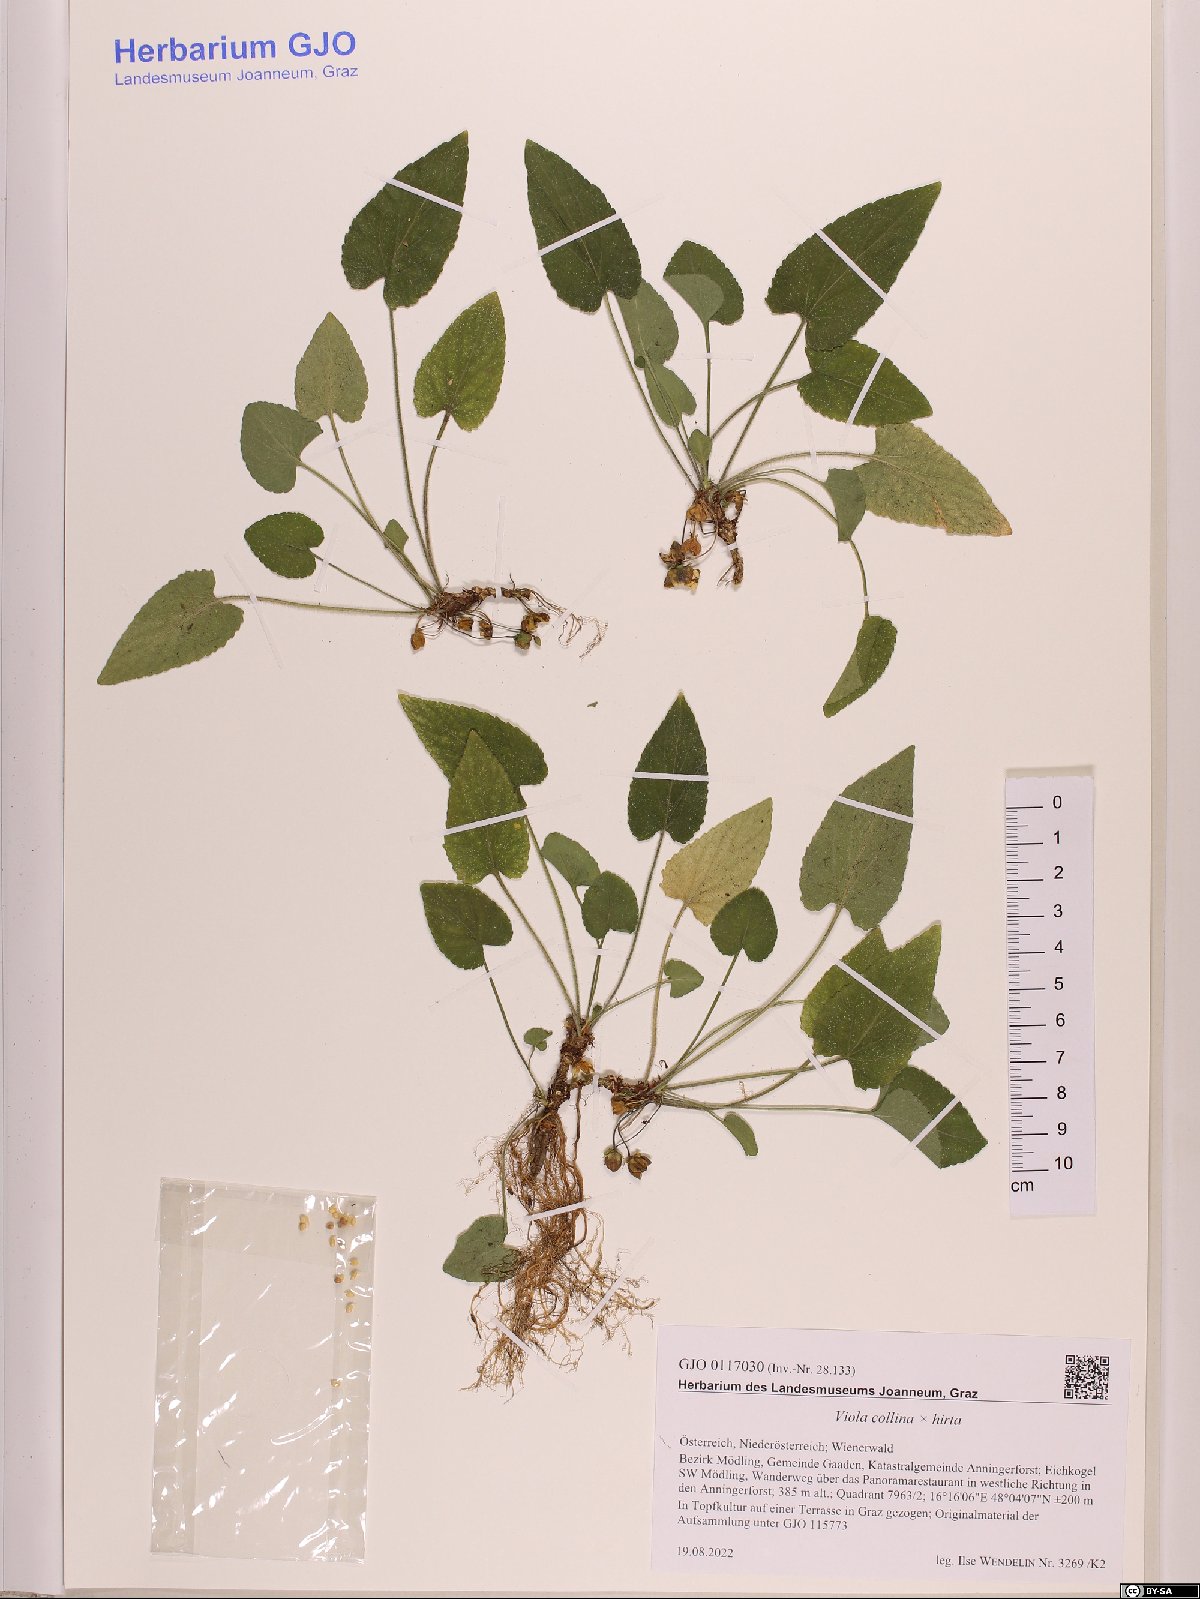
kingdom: Plantae
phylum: Tracheophyta
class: Magnoliopsida
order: Malpighiales
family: Violaceae
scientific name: Violaceae
